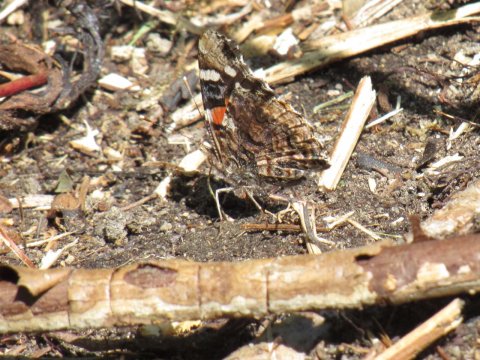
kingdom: Animalia
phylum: Arthropoda
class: Insecta
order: Lepidoptera
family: Nymphalidae
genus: Vanessa
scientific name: Vanessa atalanta
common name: Red Admiral
